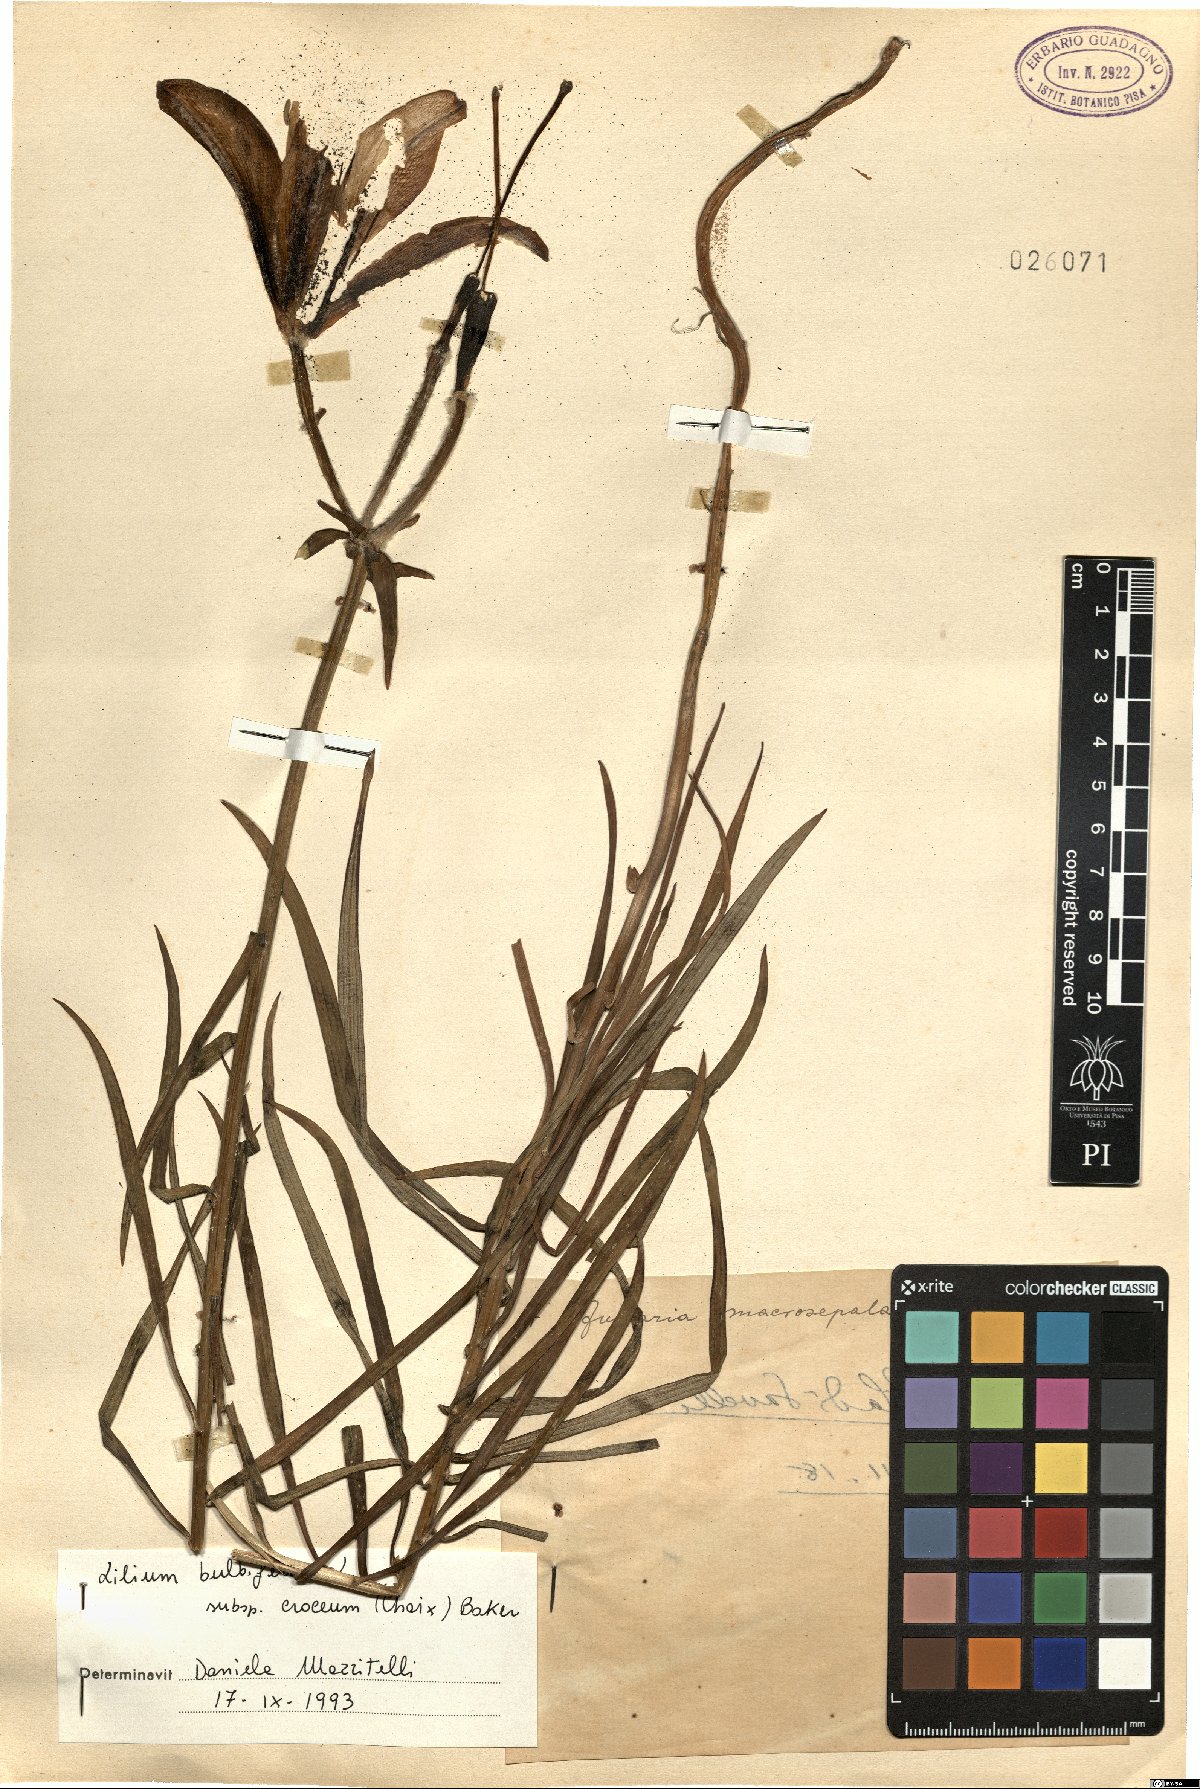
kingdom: Plantae
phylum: Tracheophyta
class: Liliopsida
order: Liliales
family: Liliaceae
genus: Lilium
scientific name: Lilium bulbiferum
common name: Orange lily
